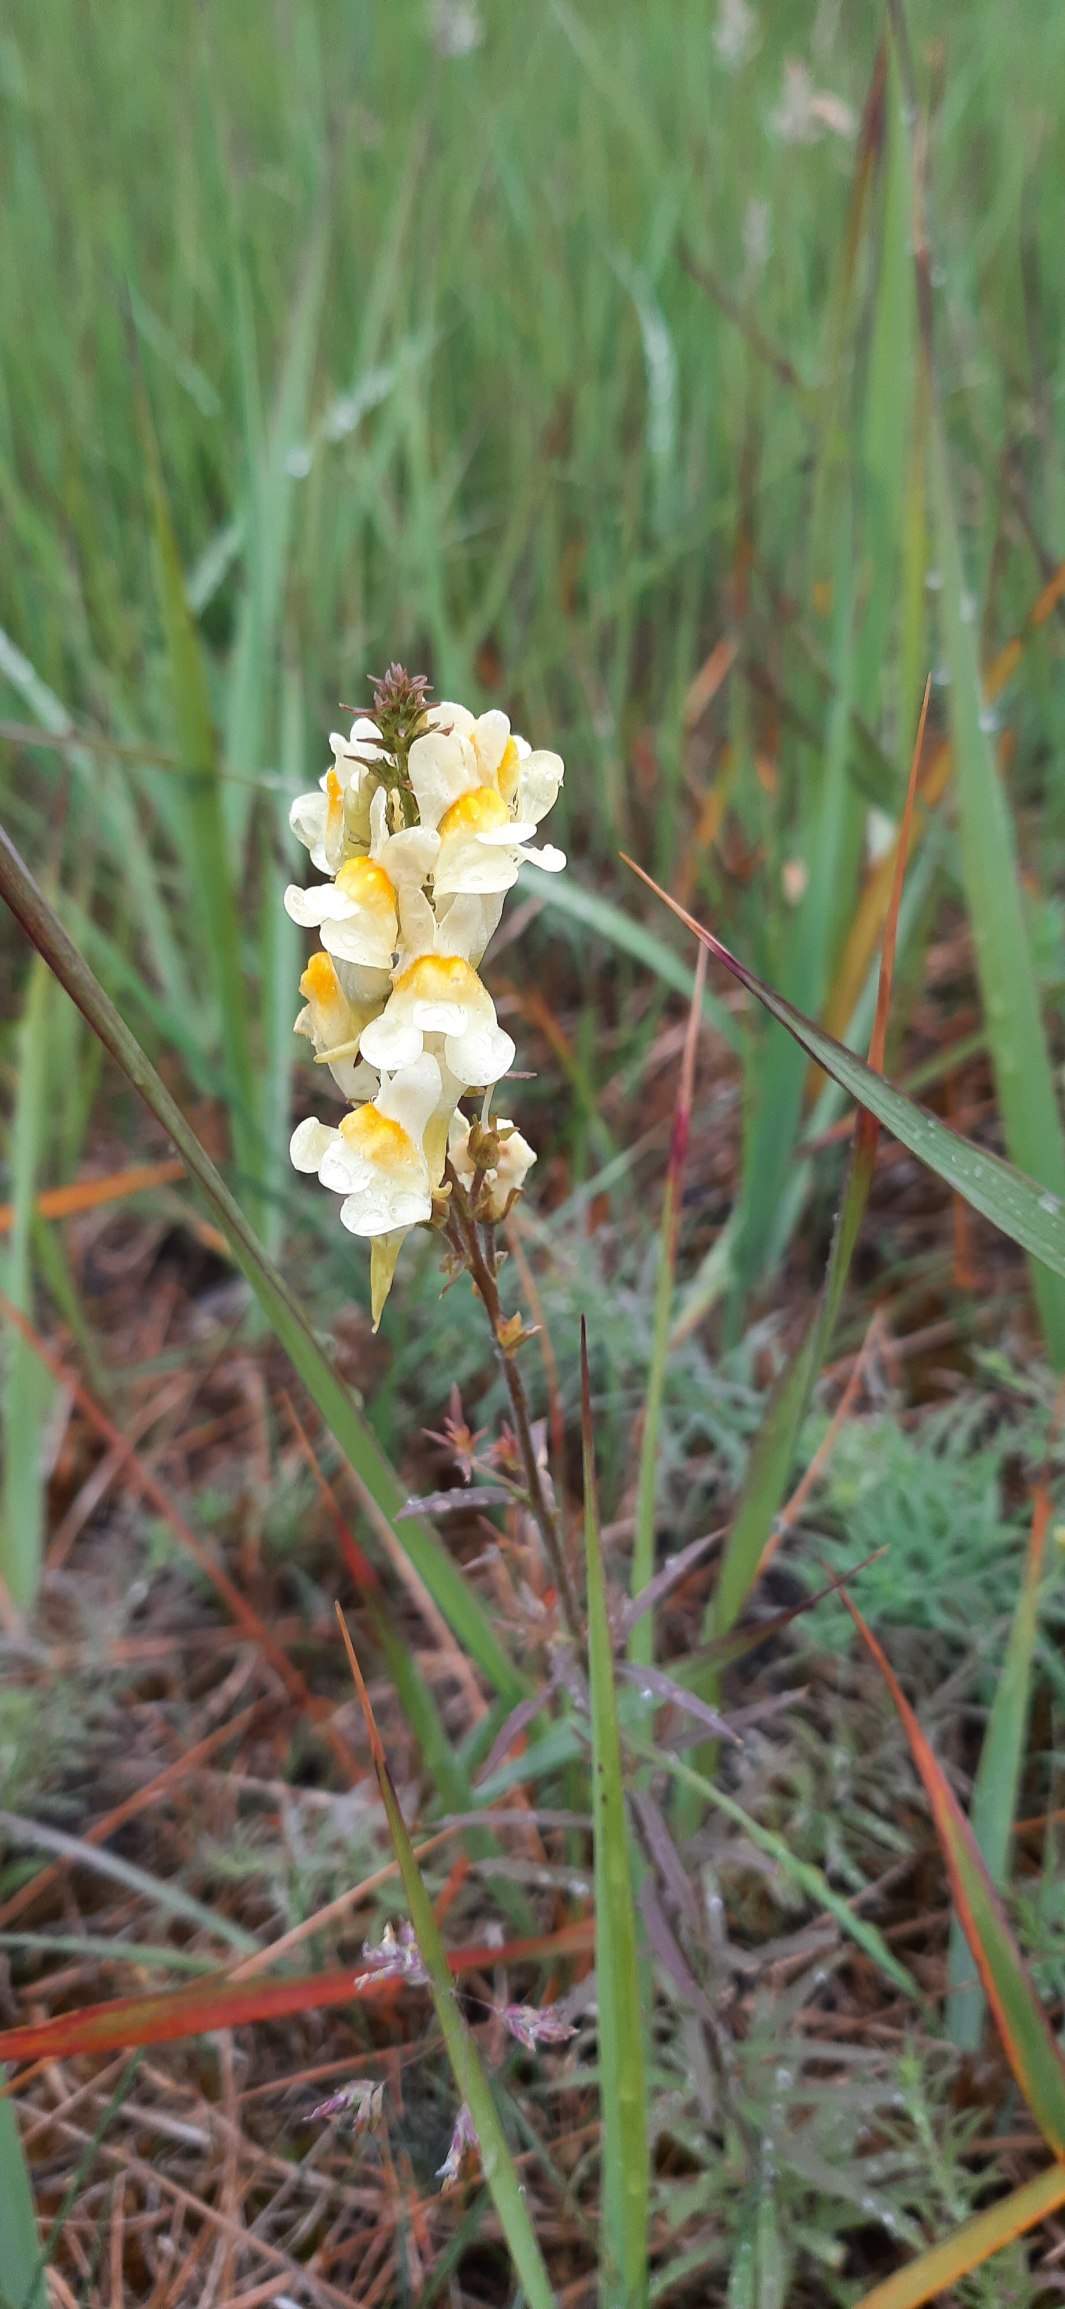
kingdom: Plantae
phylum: Tracheophyta
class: Magnoliopsida
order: Lamiales
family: Plantaginaceae
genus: Linaria
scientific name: Linaria vulgaris
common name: Almindelig torskemund
